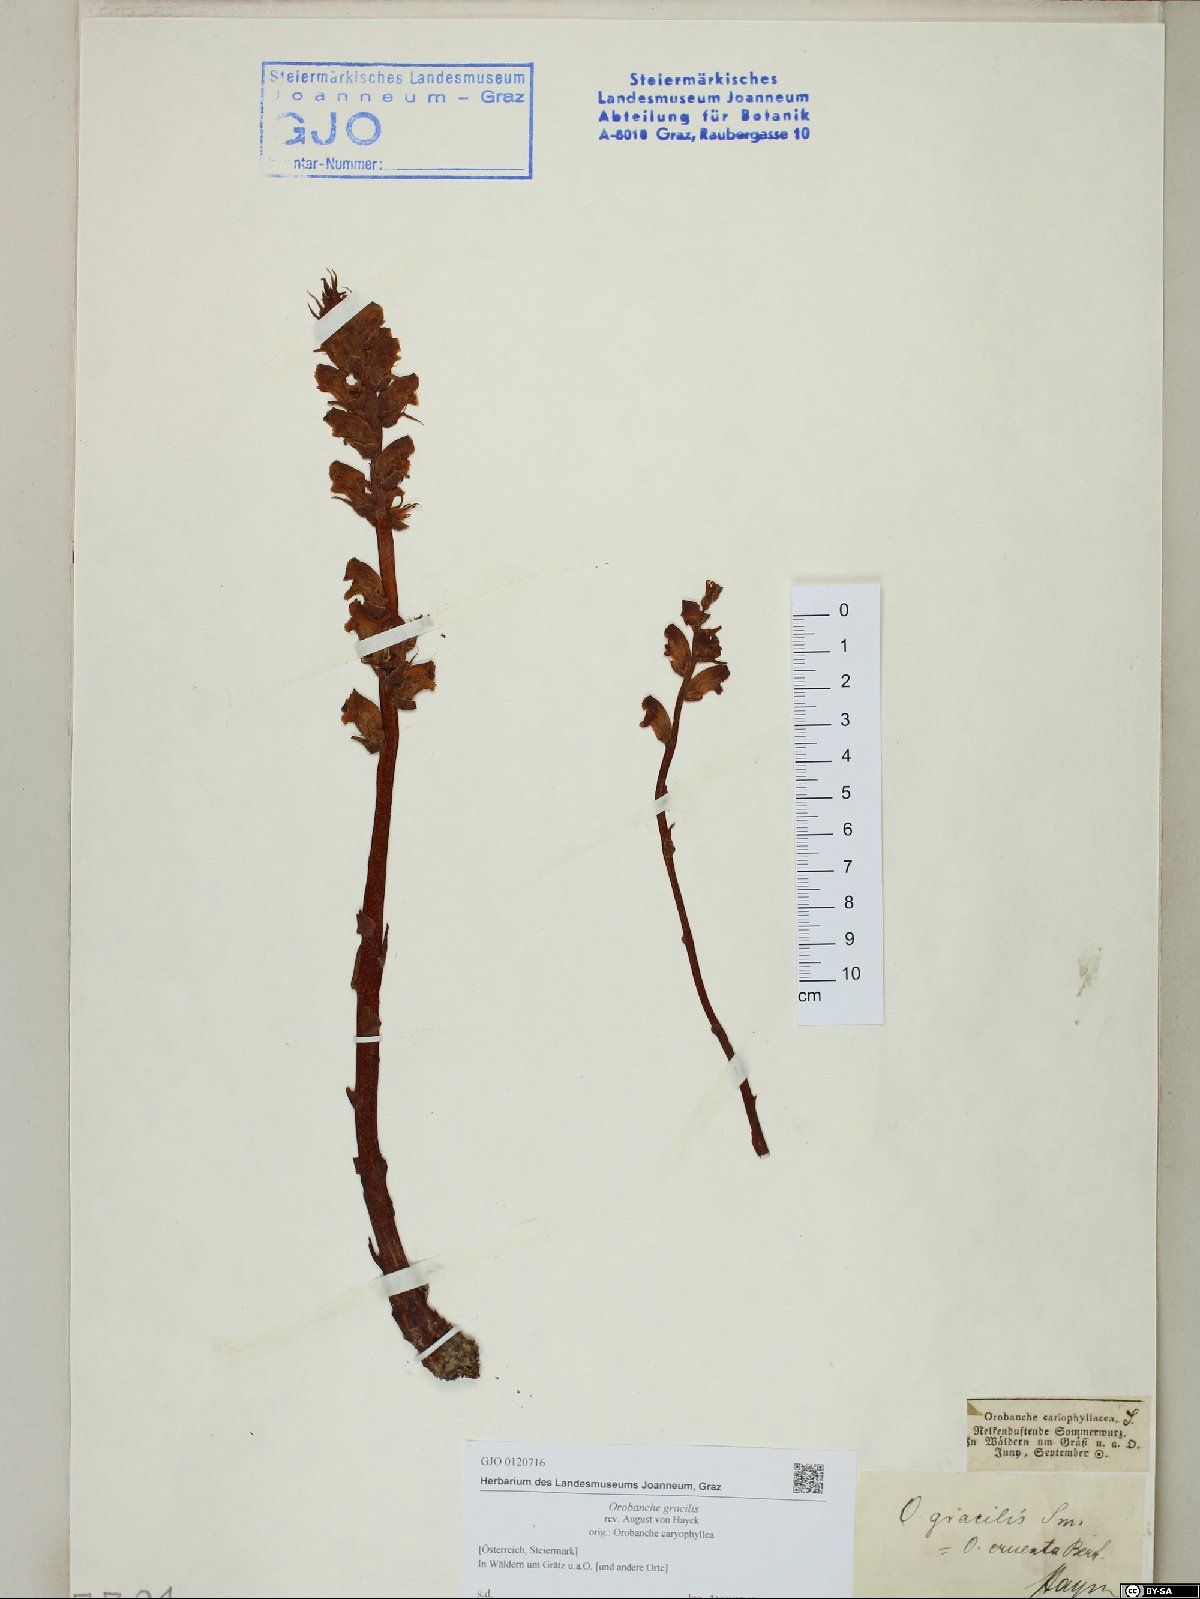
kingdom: Plantae
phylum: Tracheophyta
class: Magnoliopsida
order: Lamiales
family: Orobanchaceae
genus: Orobanche
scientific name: Orobanche gracilis
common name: Slender broomrape
